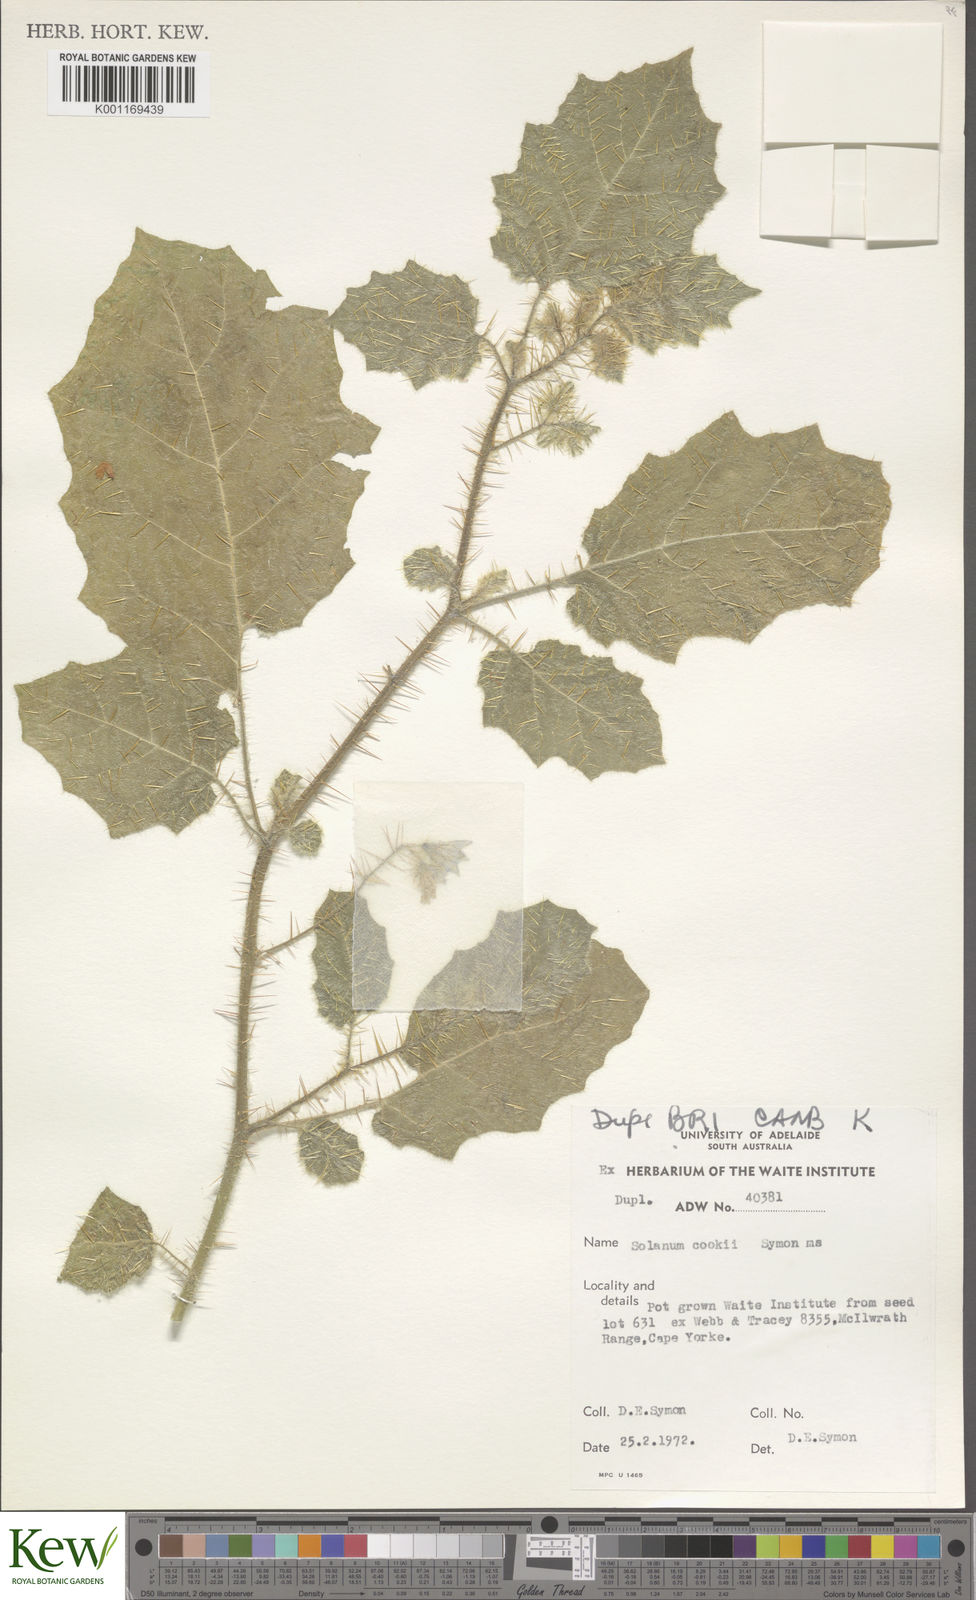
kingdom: Plantae
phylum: Tracheophyta
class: Magnoliopsida
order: Solanales
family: Solanaceae
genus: Solanum
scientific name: Solanum cookii
